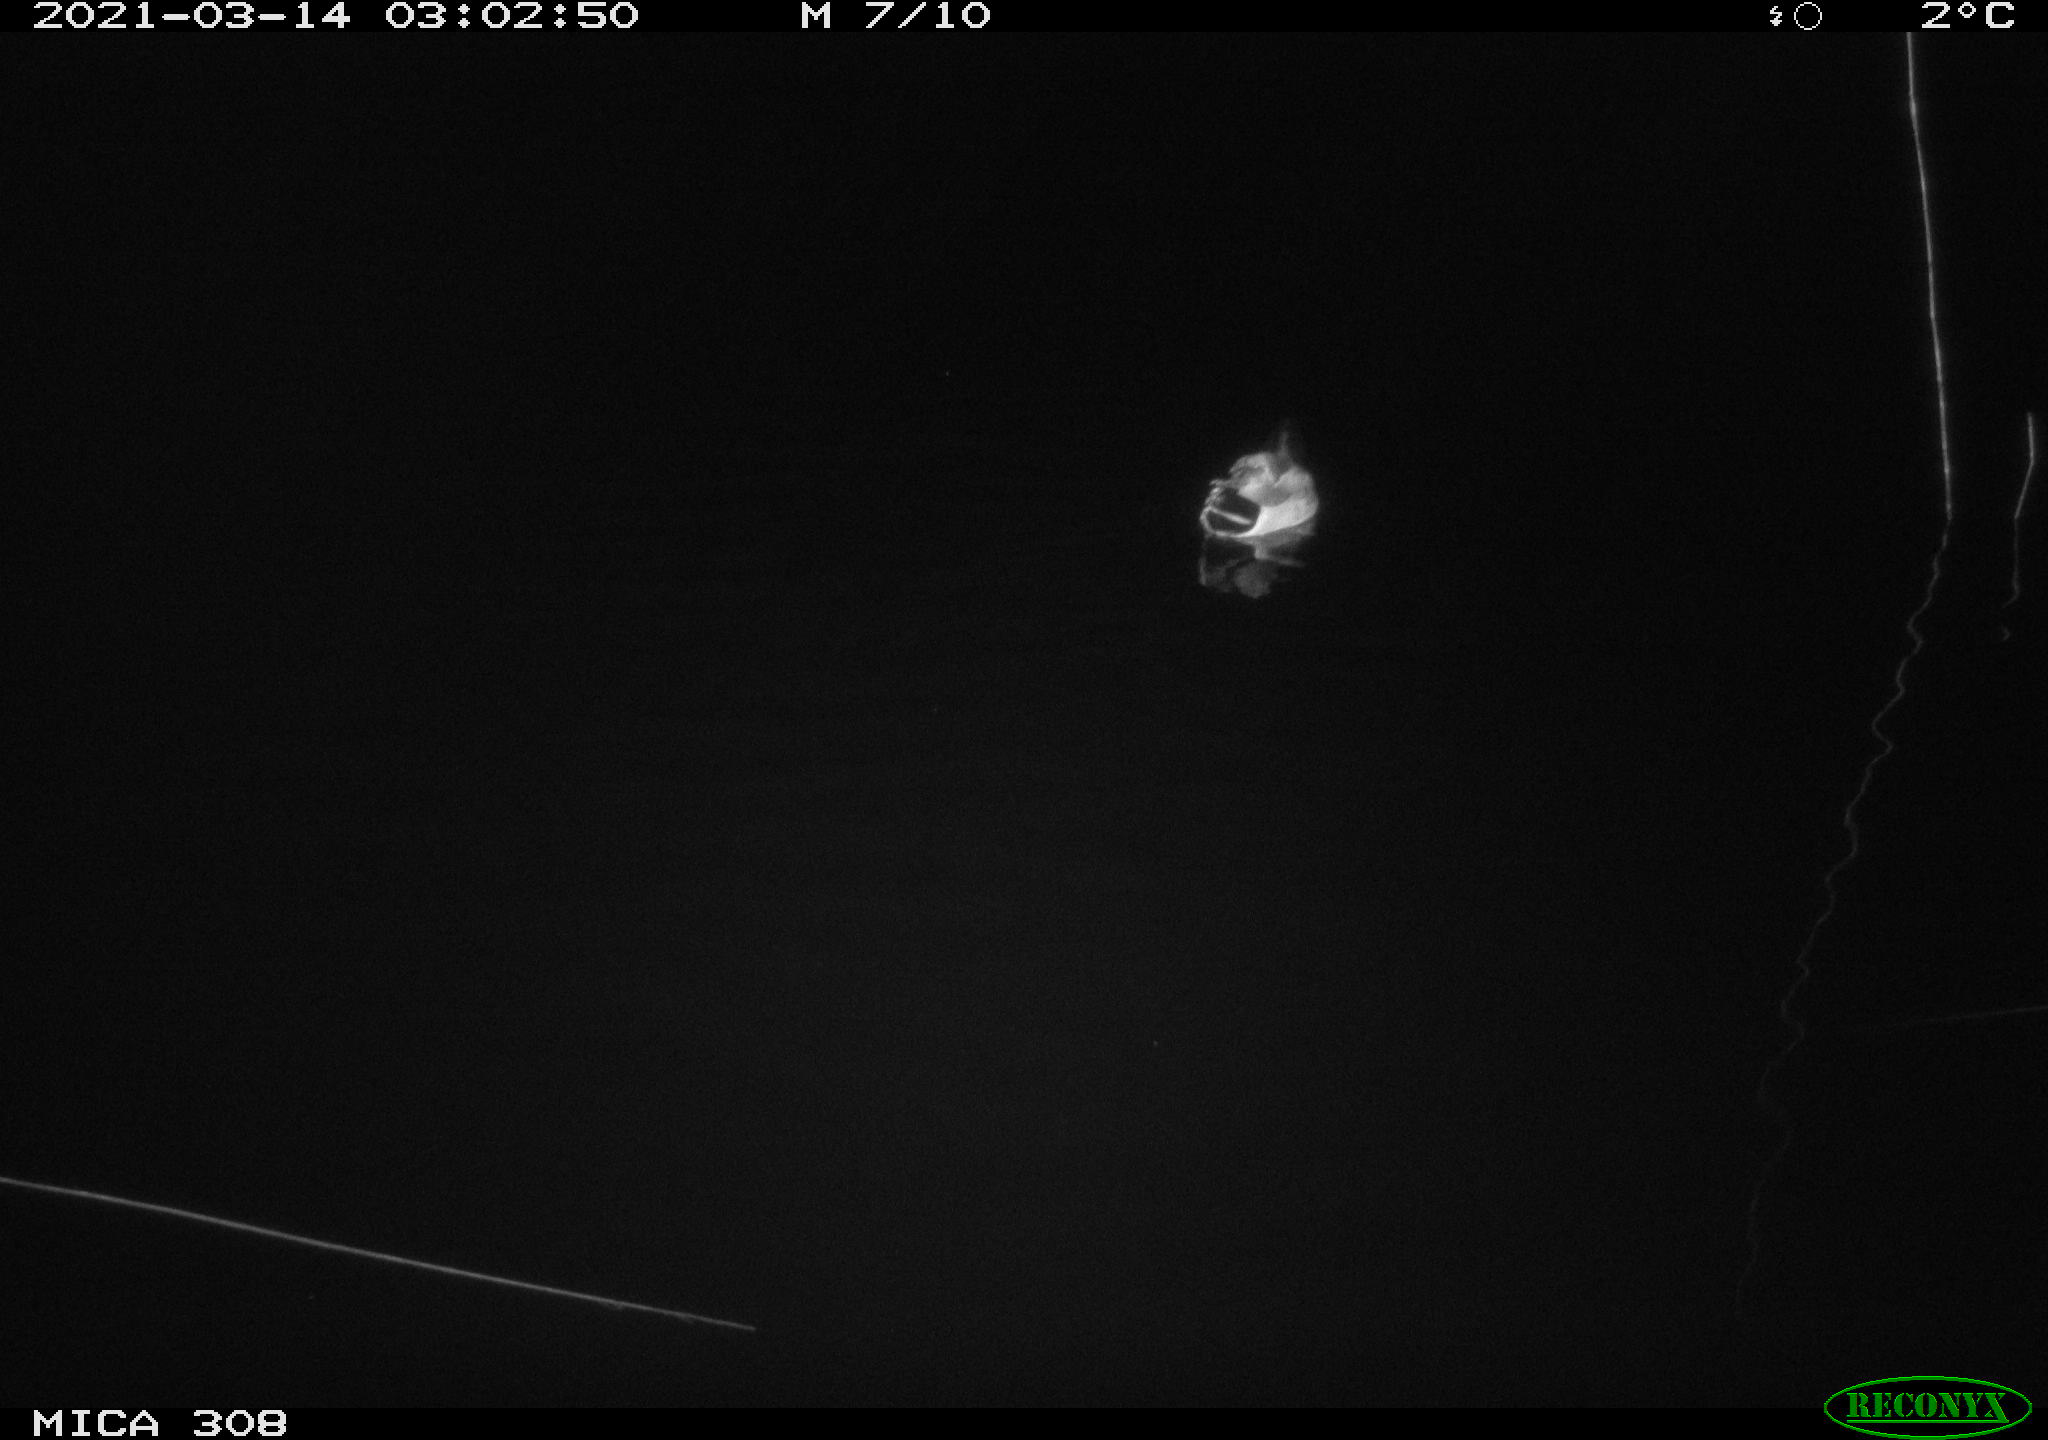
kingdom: Animalia
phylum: Chordata
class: Aves
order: Anseriformes
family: Anatidae
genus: Anas
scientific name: Anas platyrhynchos
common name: Mallard
